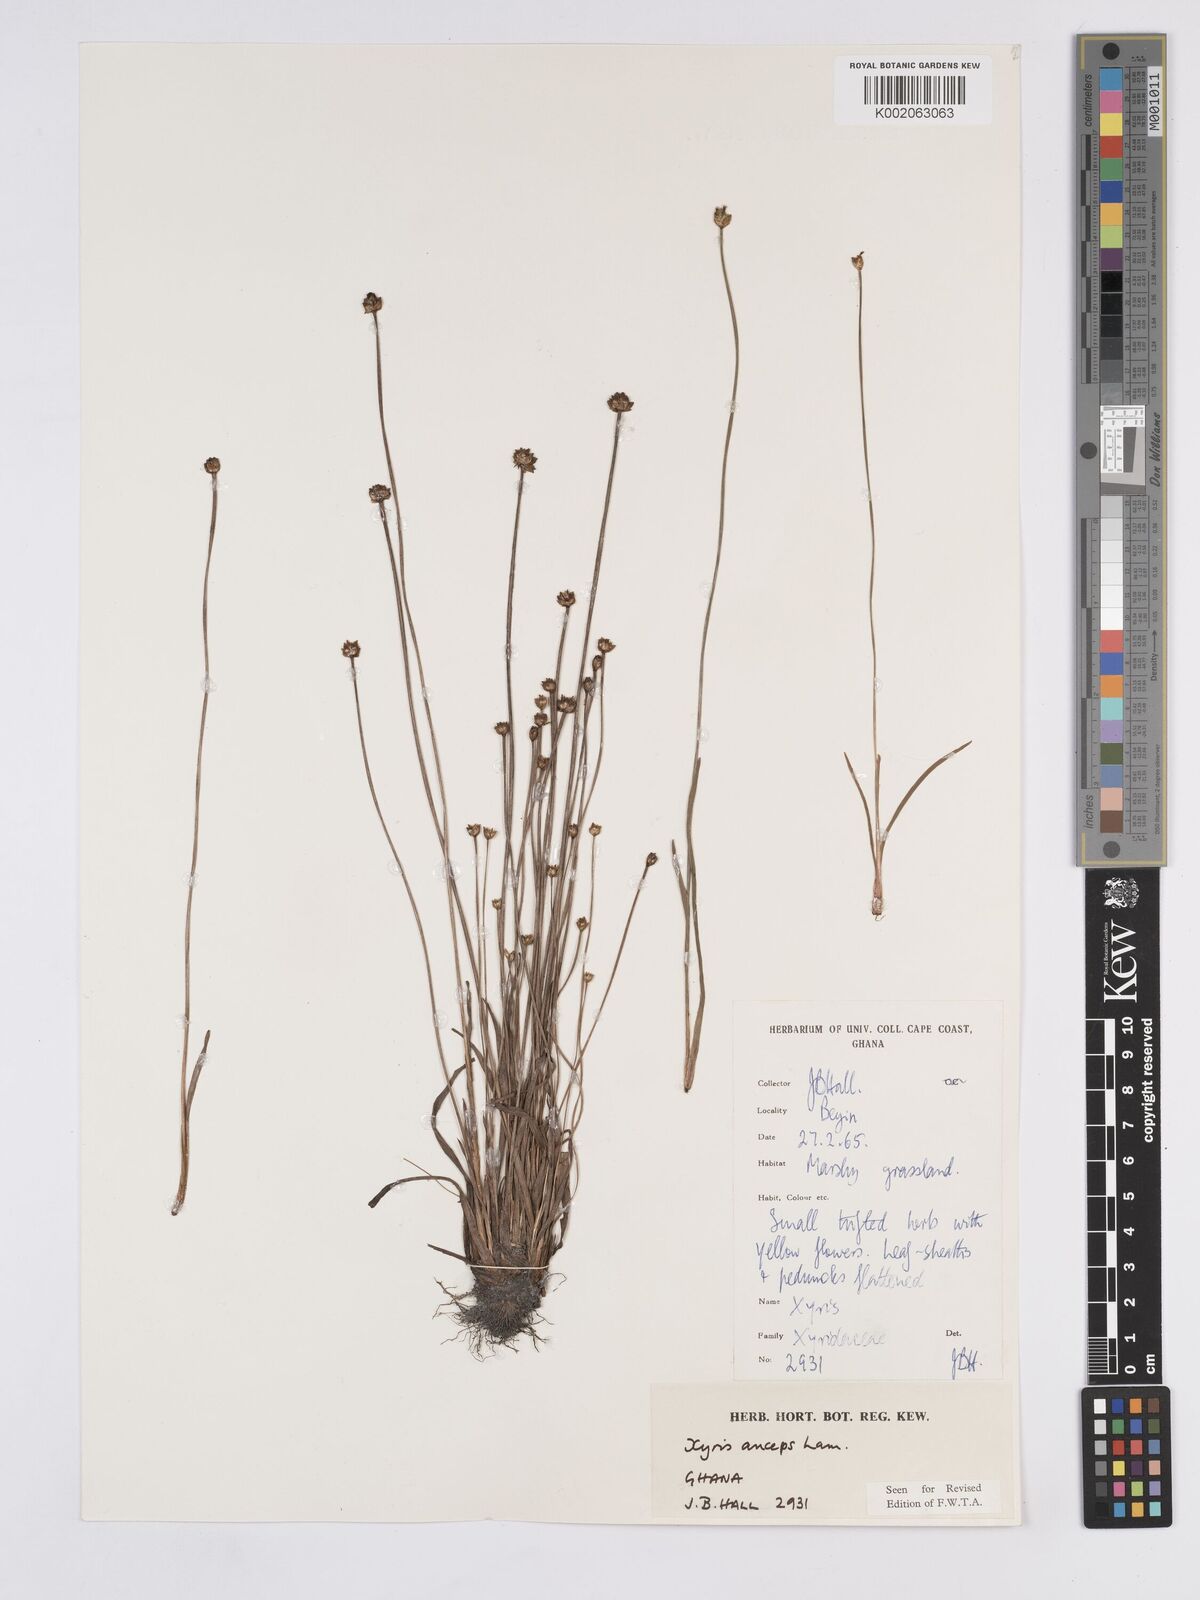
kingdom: Plantae
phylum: Tracheophyta
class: Liliopsida
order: Poales
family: Xyridaceae
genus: Xyris
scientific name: Xyris anceps
